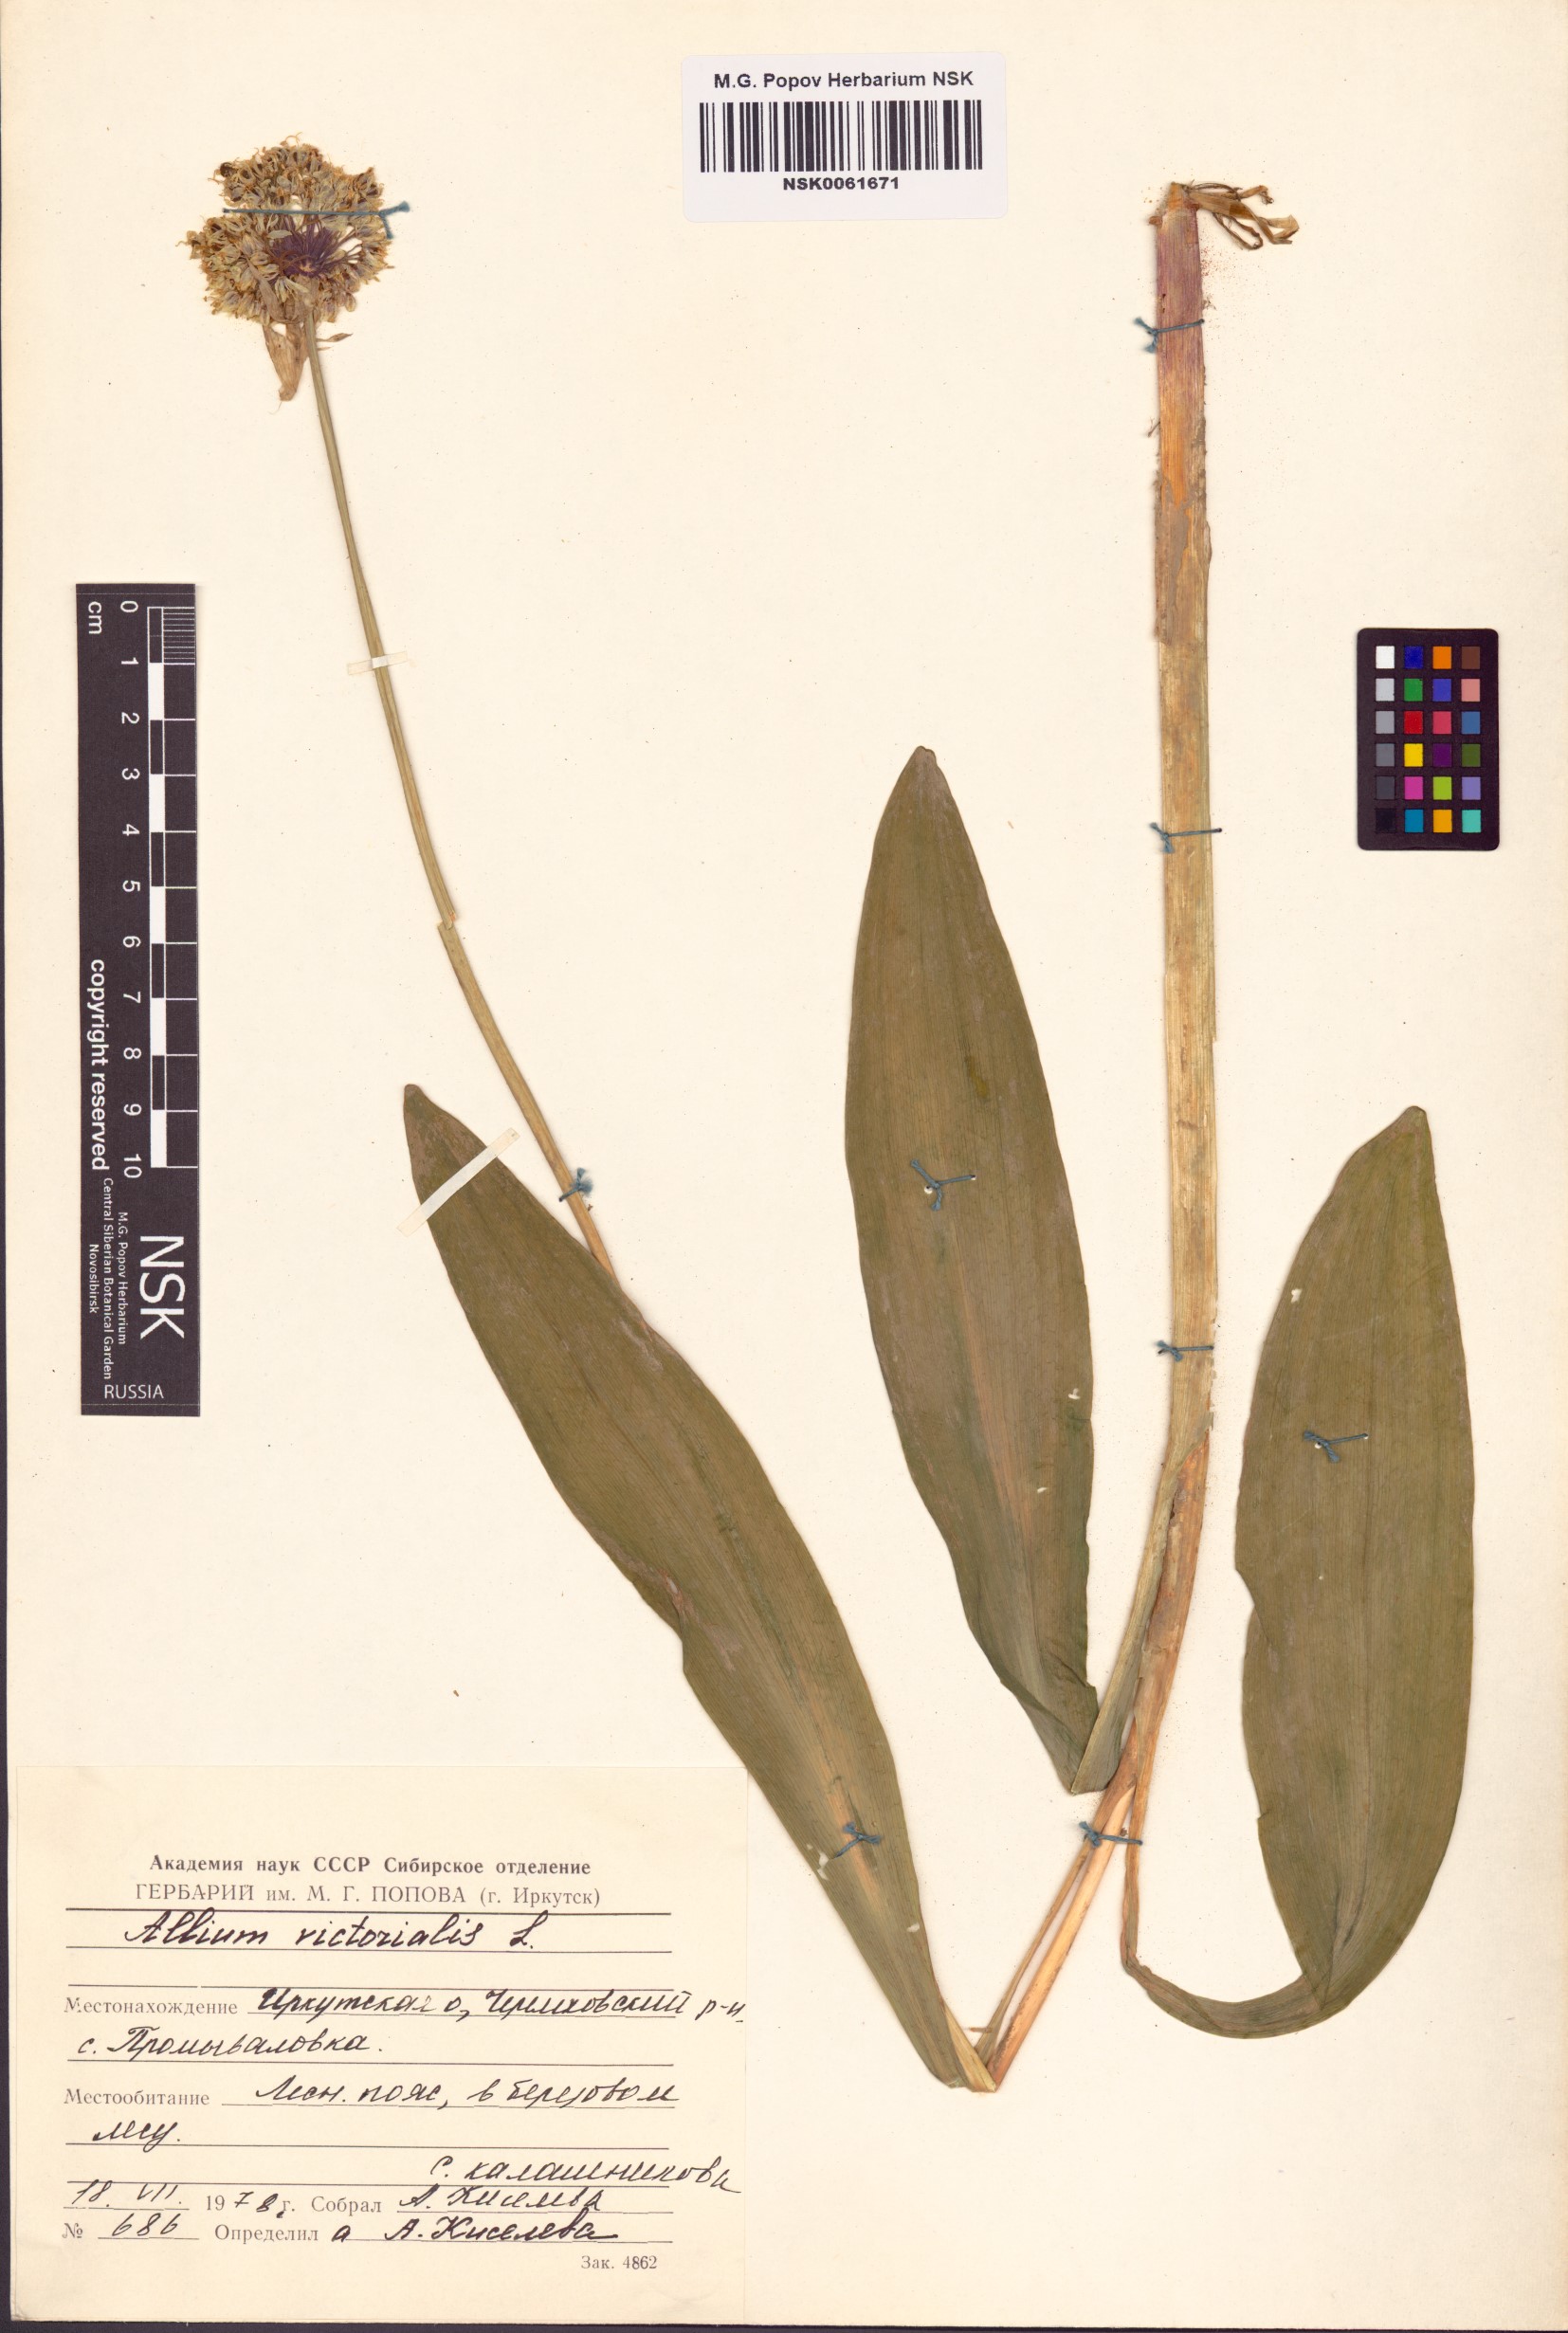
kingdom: Plantae
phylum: Tracheophyta
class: Liliopsida
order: Asparagales
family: Amaryllidaceae
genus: Allium
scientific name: Allium victorialis
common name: Alpine leek
